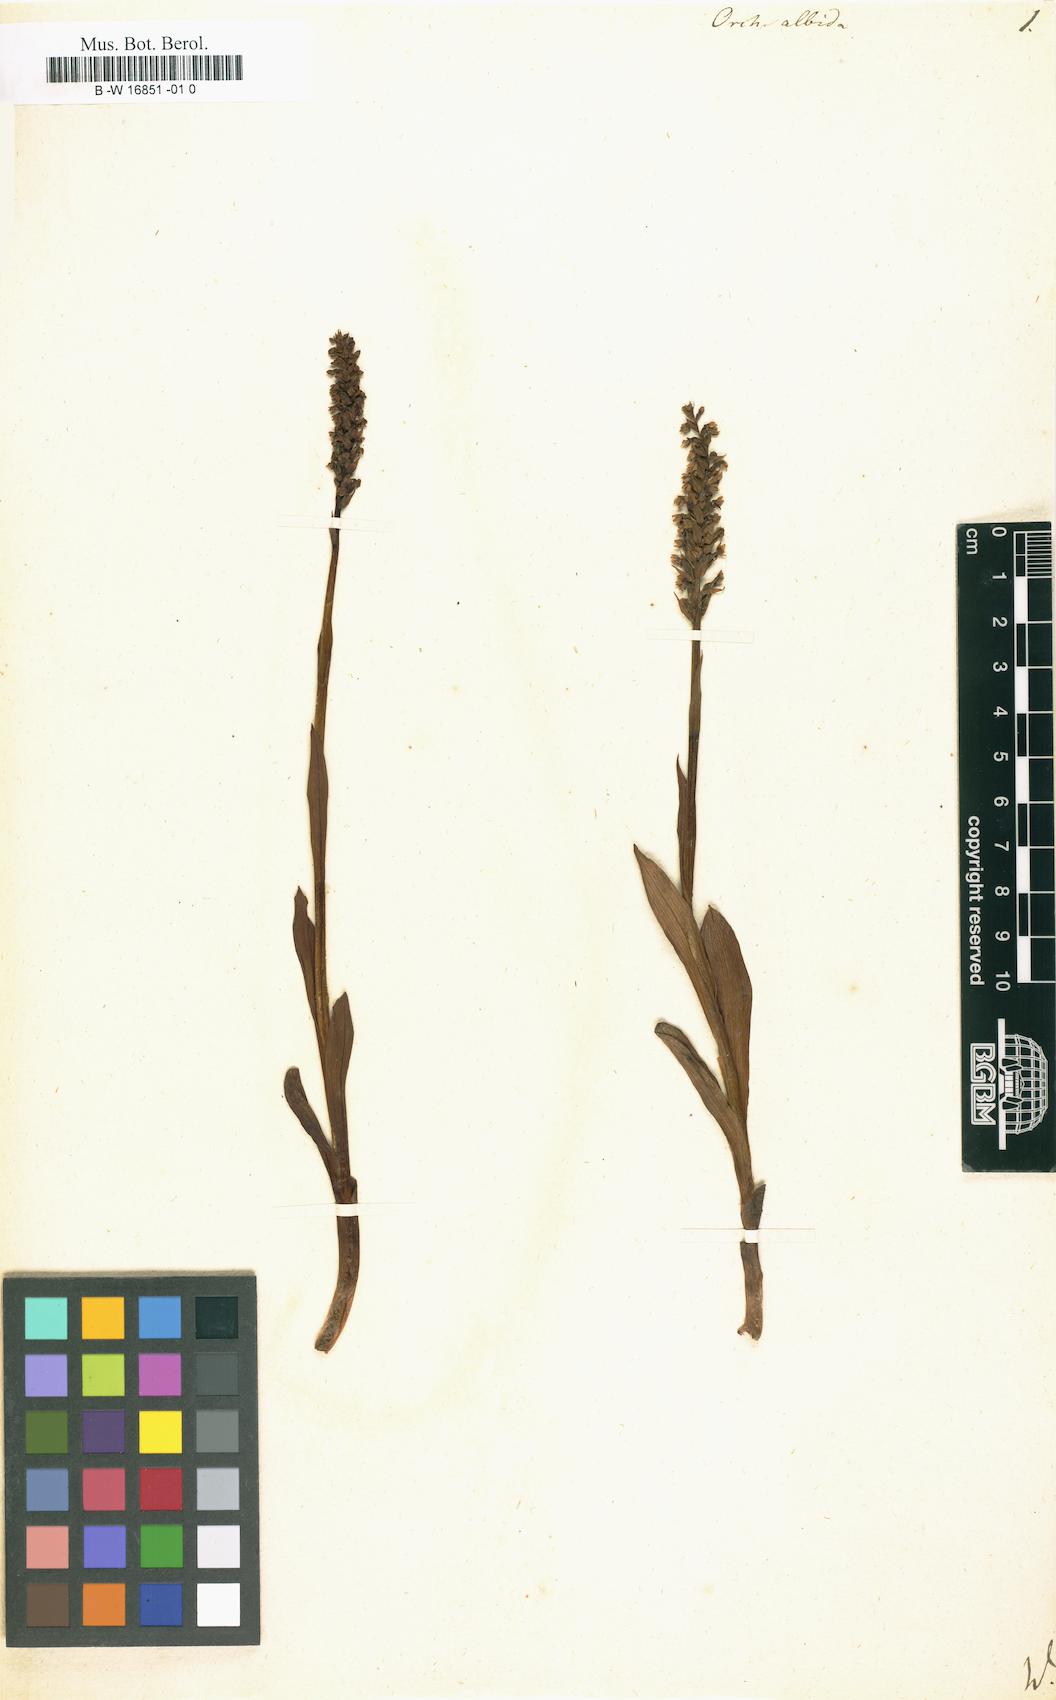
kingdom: Plantae
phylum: Tracheophyta
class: Liliopsida
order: Asparagales
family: Orchidaceae
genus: Pseudorchis
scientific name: Pseudorchis albida
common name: Small-white orchid
